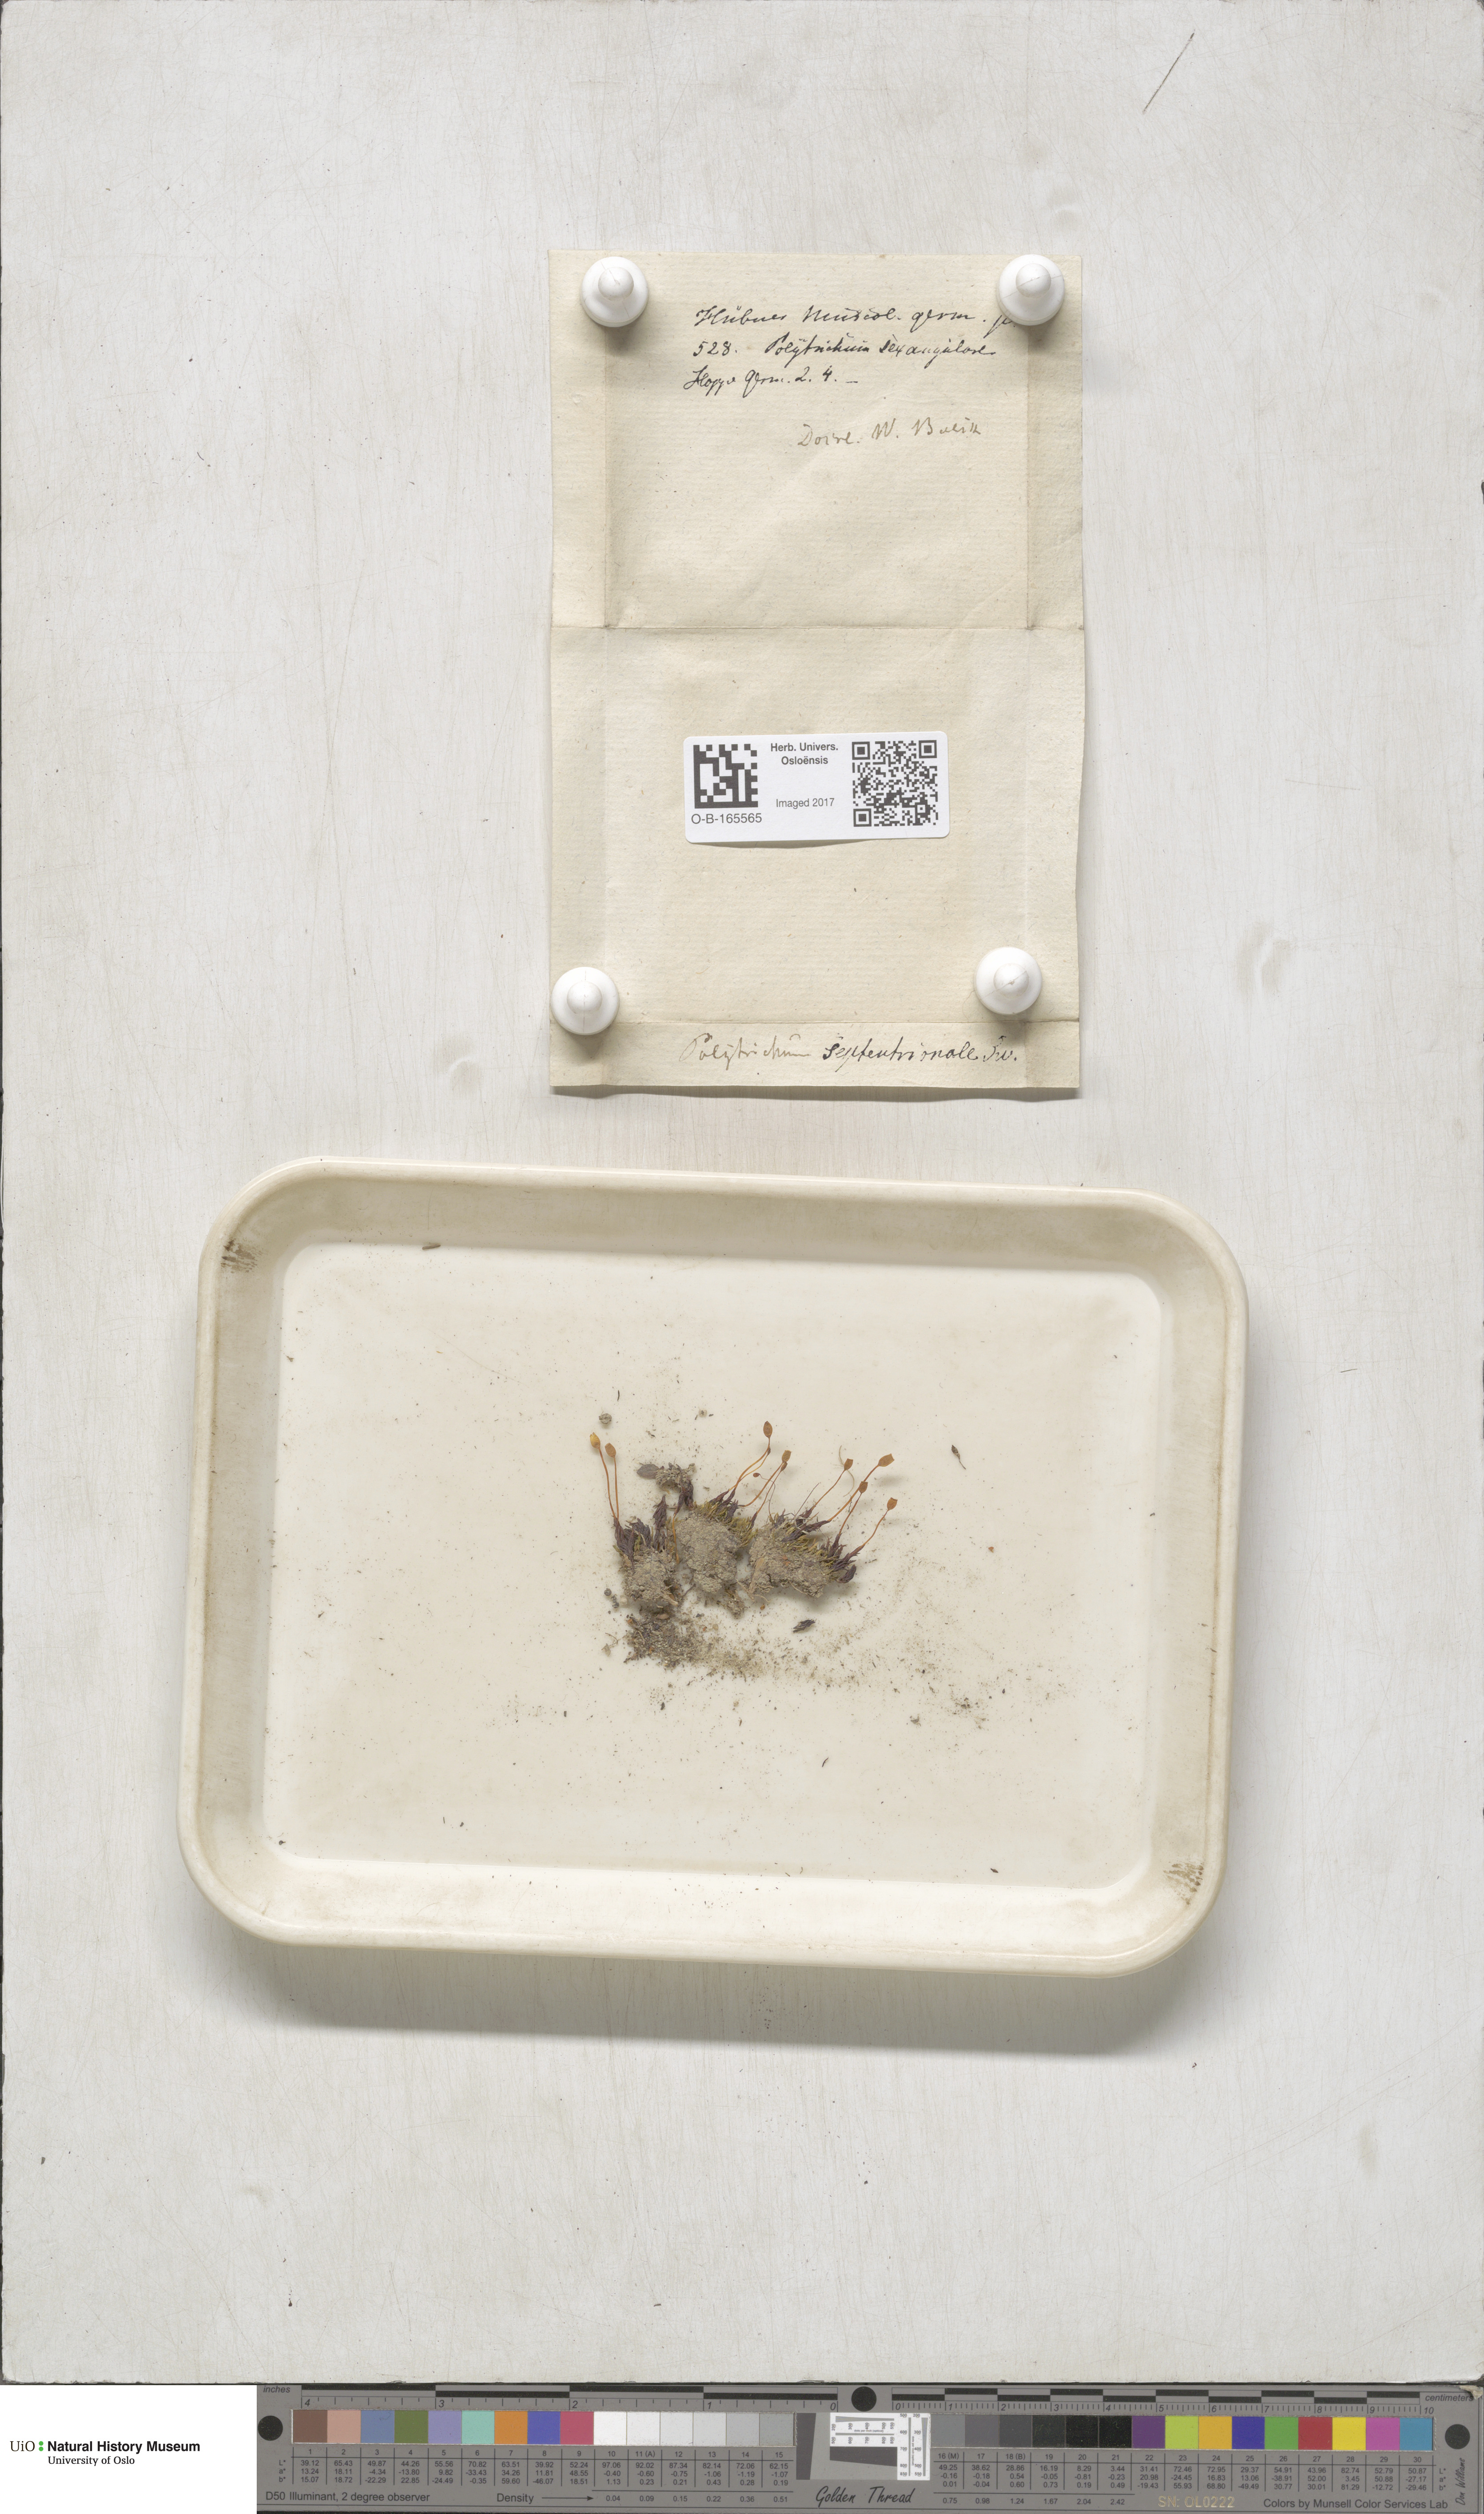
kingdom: Plantae
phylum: Bryophyta
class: Polytrichopsida
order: Polytrichales
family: Polytrichaceae
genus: Polytrichastrum
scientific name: Polytrichastrum sexangulare
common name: Northern haircap
